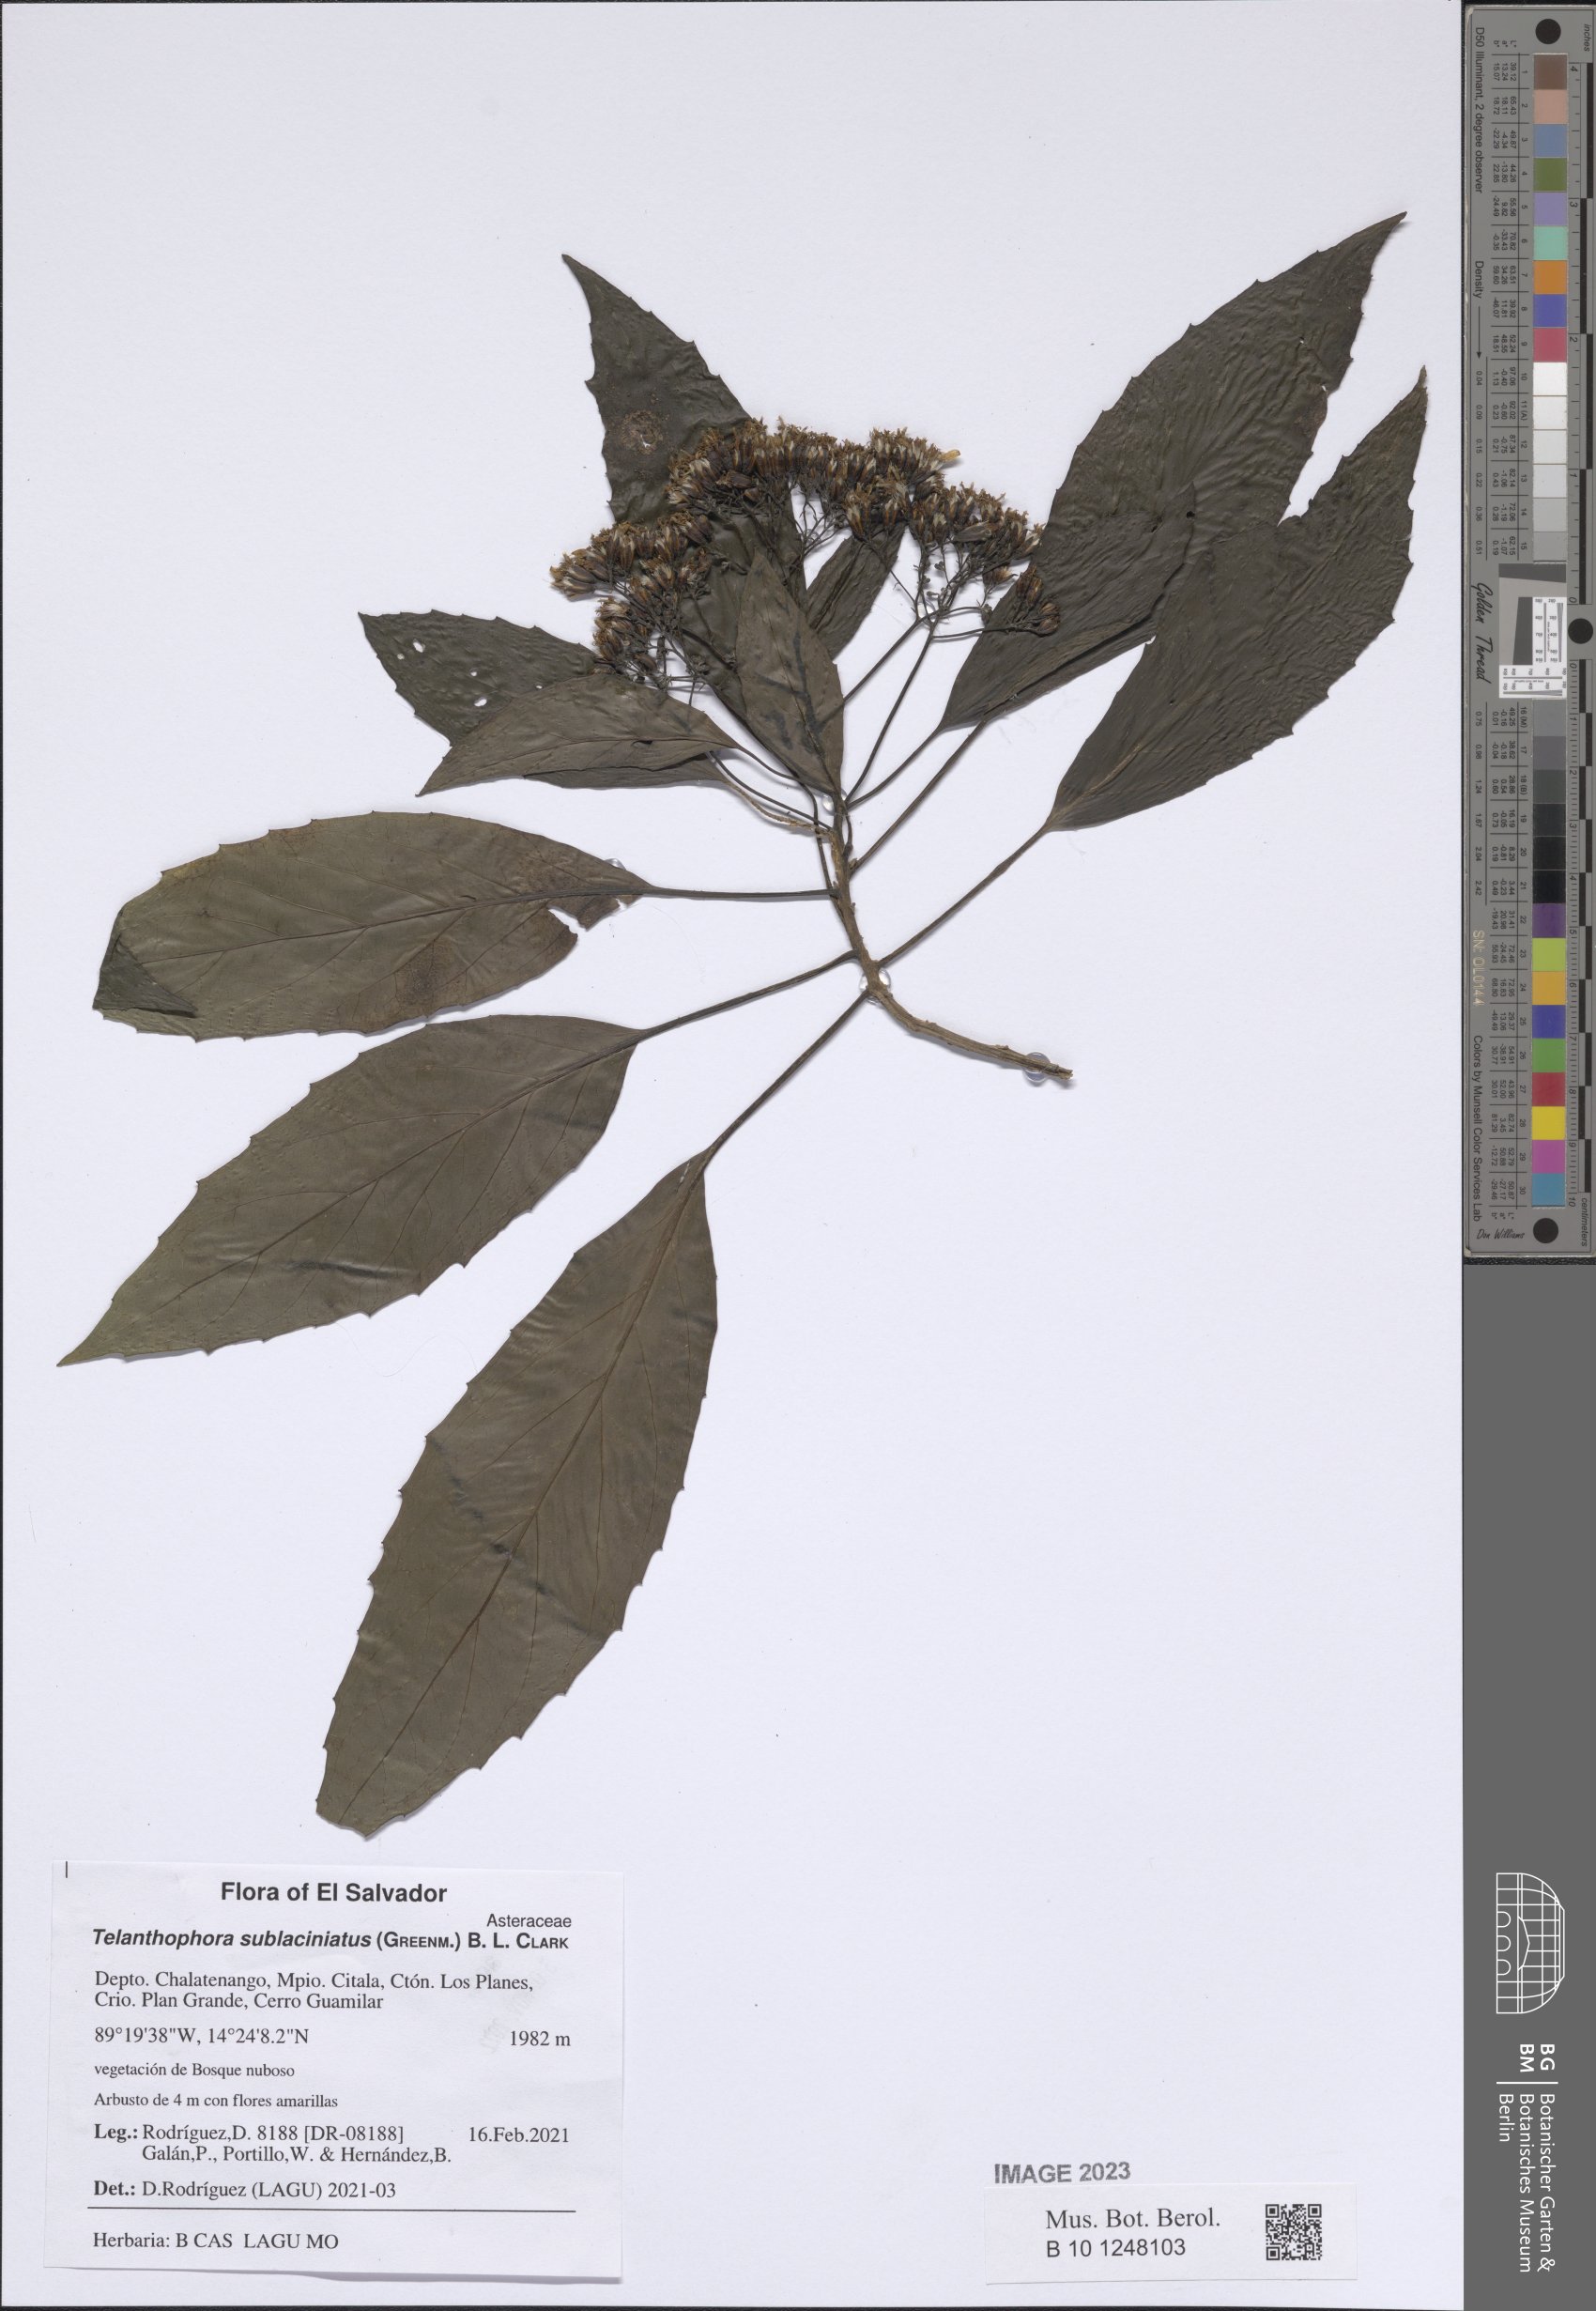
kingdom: Plantae
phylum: Tracheophyta
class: Magnoliopsida
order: Asterales
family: Asteraceae
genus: Telanthophora
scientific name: Telanthophora sublaciniata
